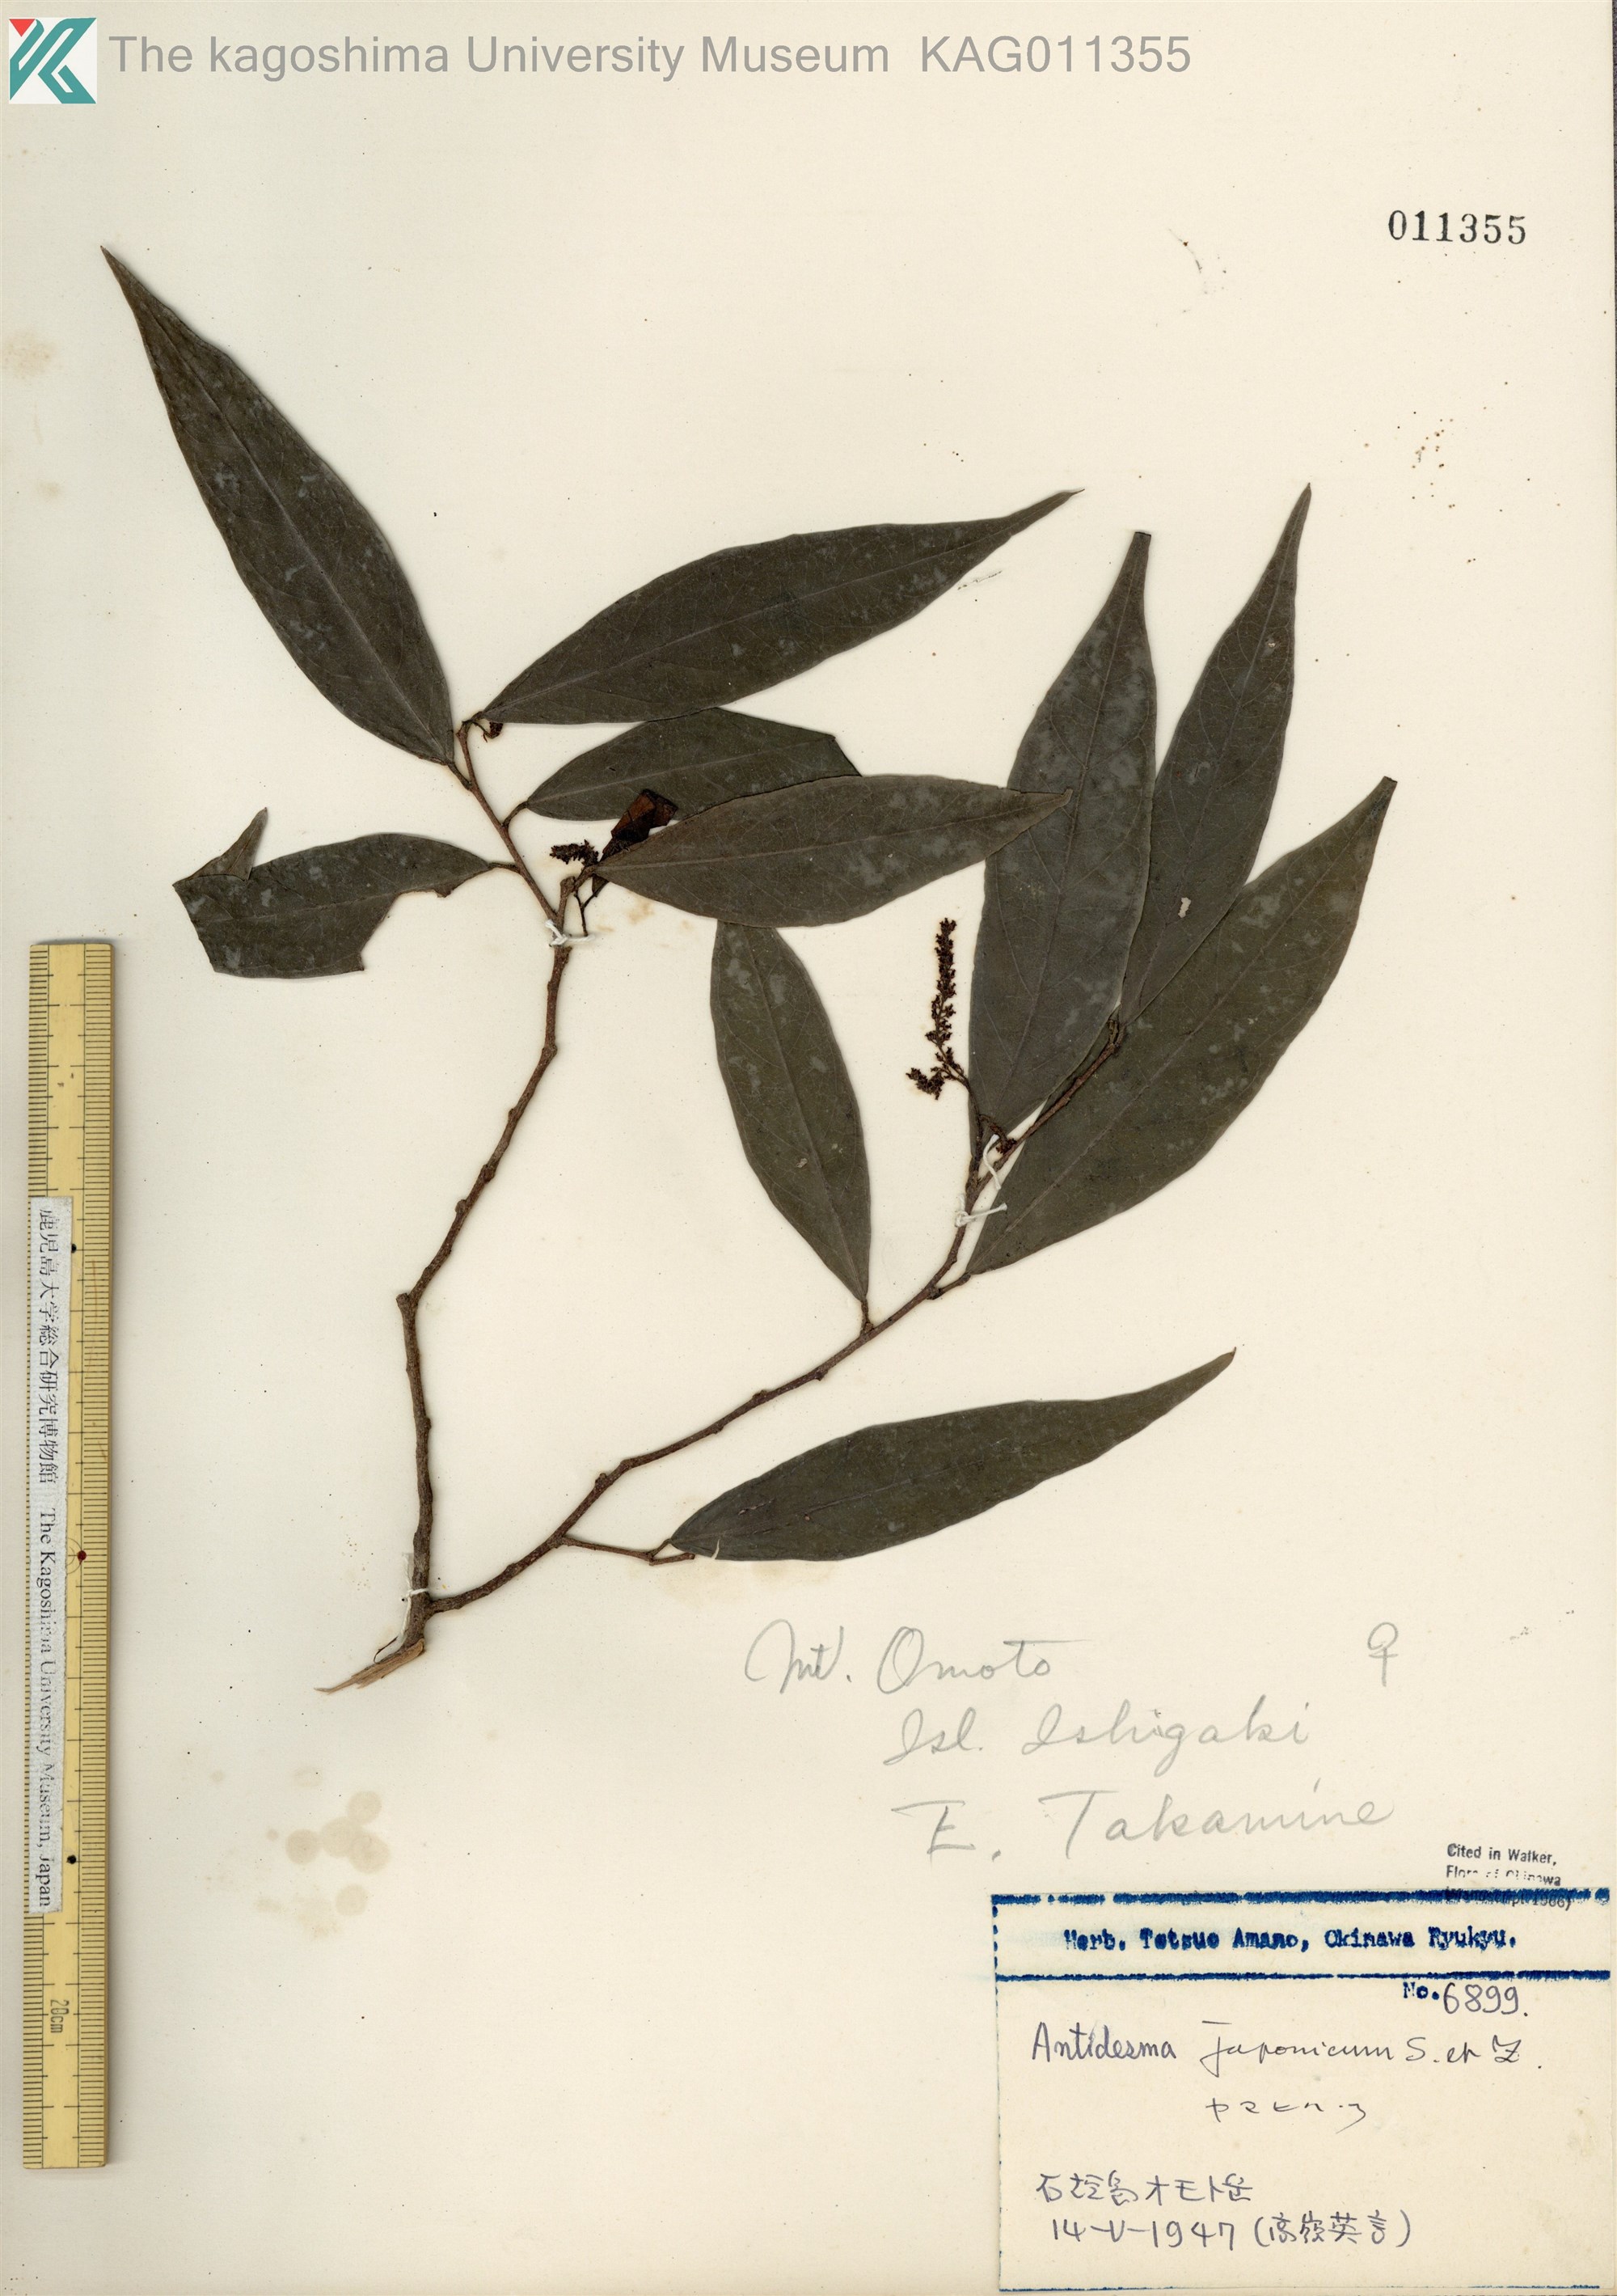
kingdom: Plantae
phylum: Tracheophyta
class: Magnoliopsida
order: Malpighiales
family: Phyllanthaceae
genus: Antidesma
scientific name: Antidesma japonicum
